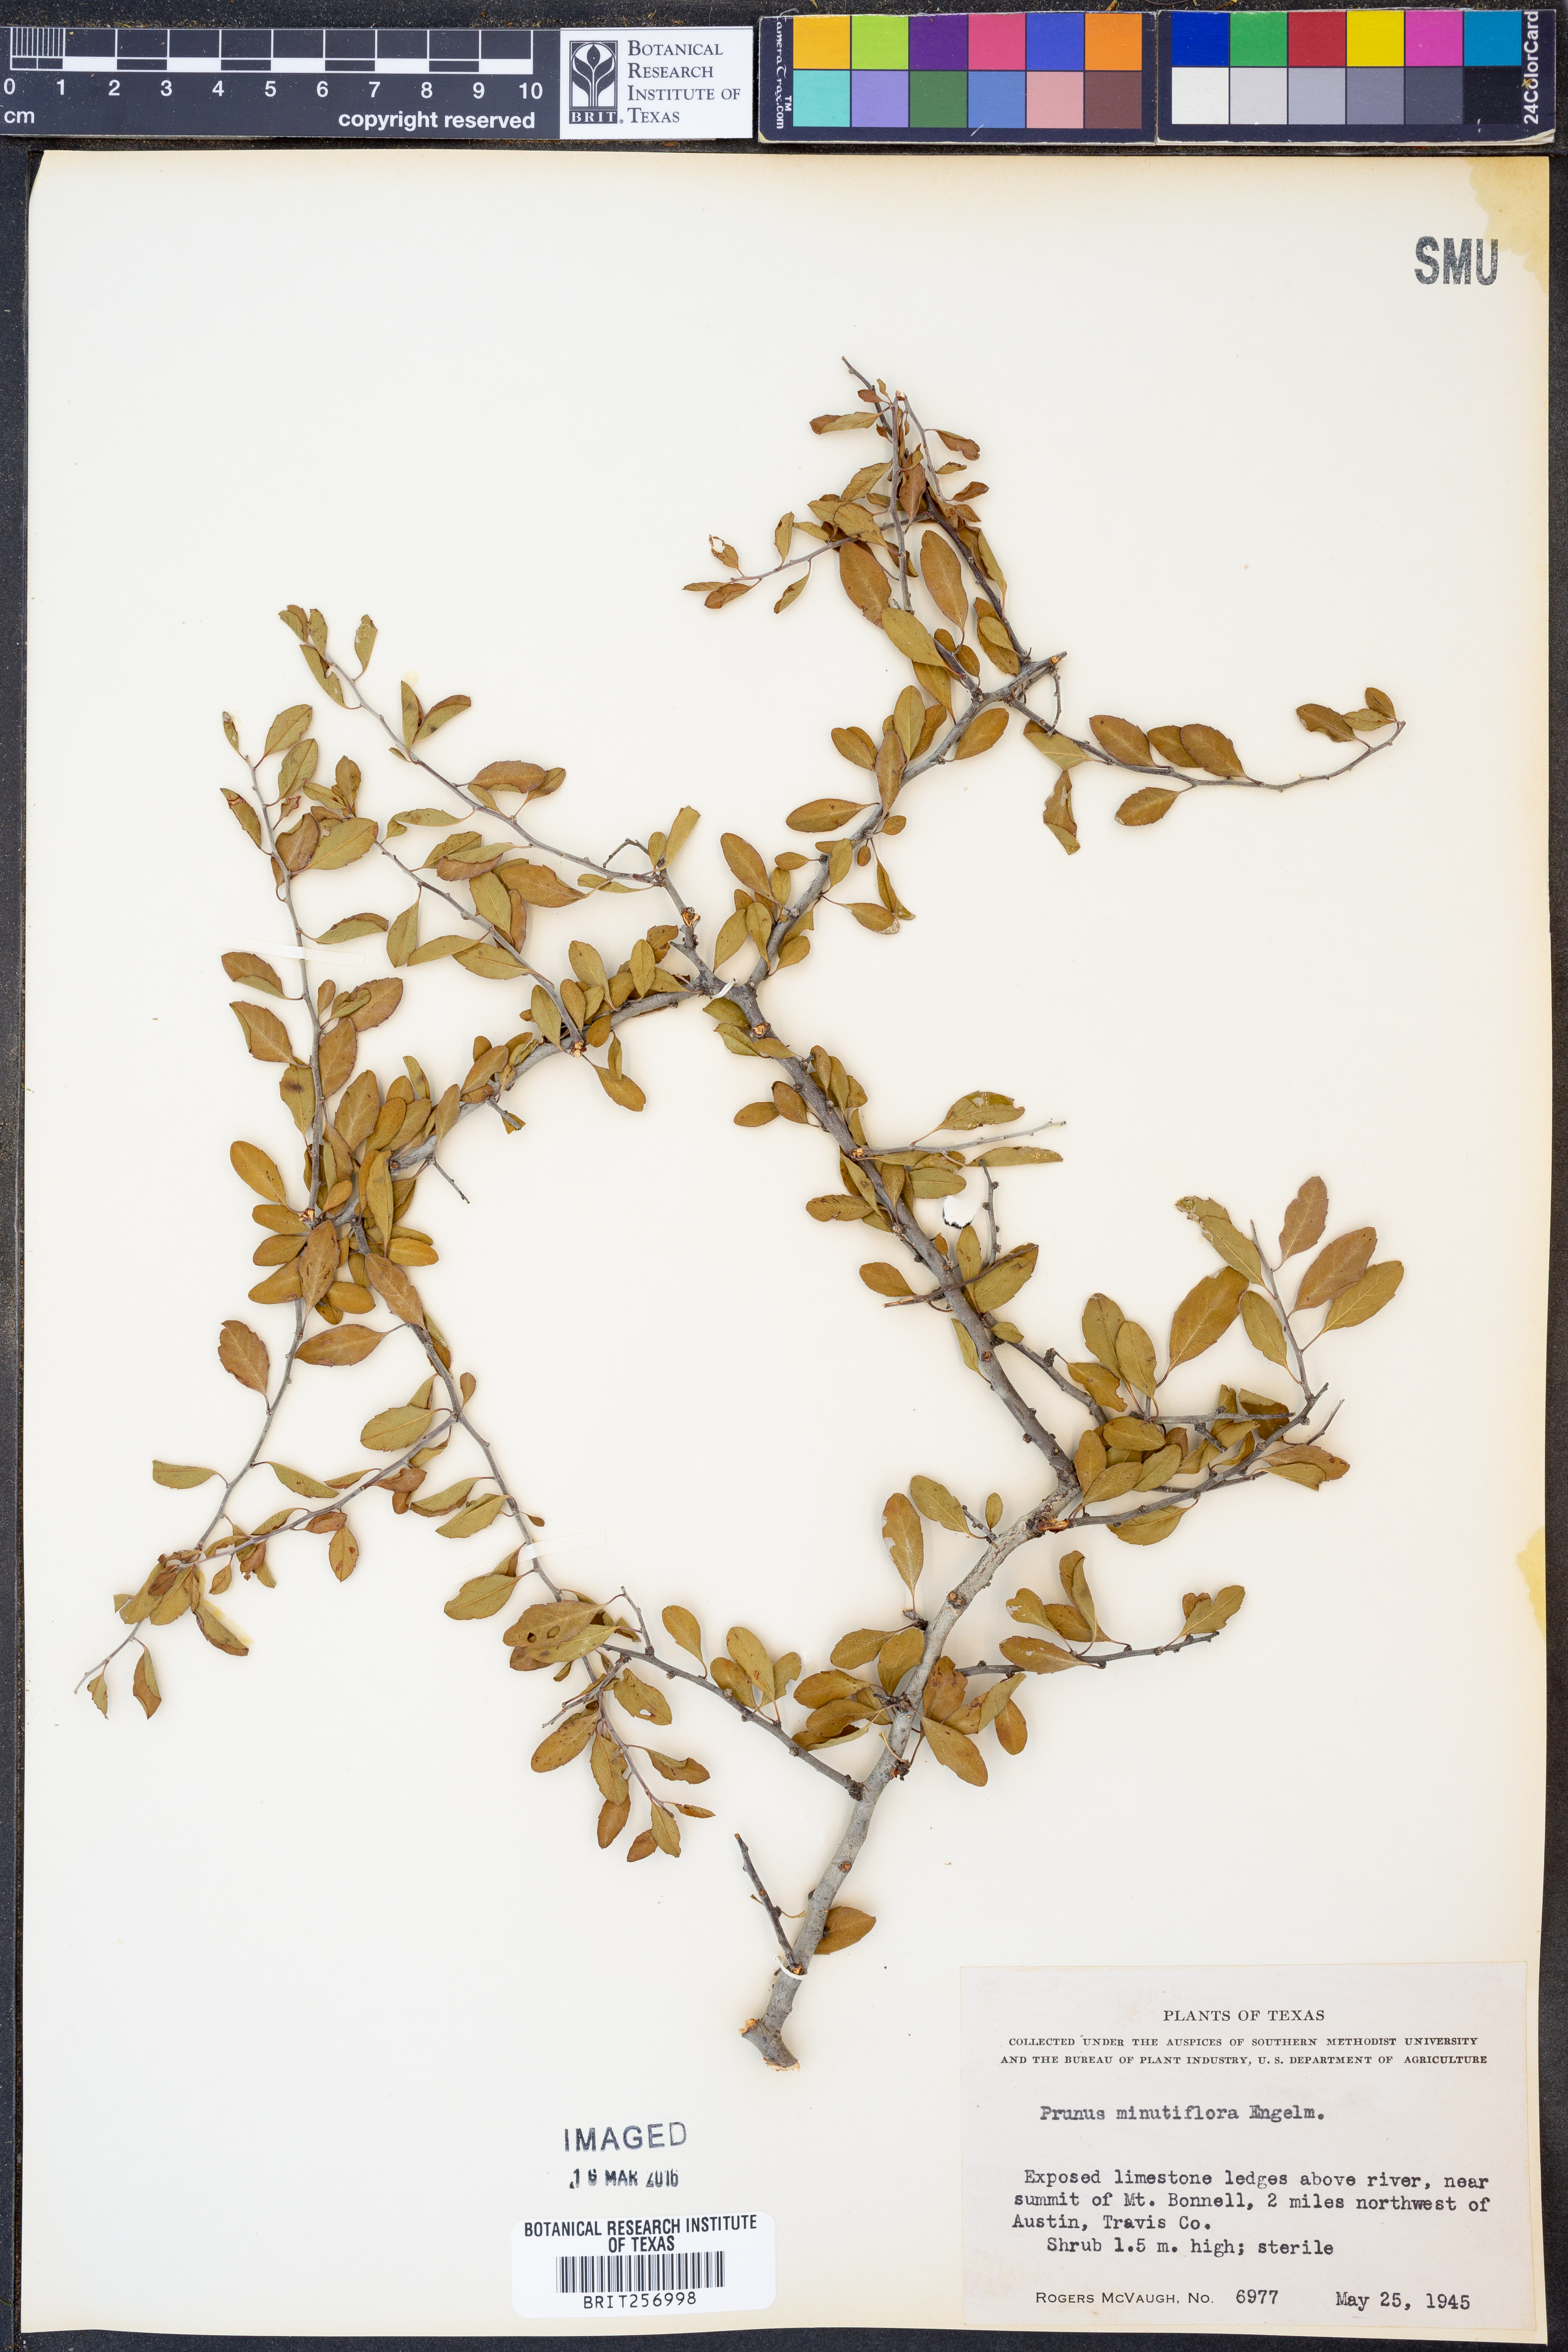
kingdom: Plantae
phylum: Tracheophyta
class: Magnoliopsida
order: Rosales
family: Rosaceae
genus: Prunus
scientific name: Prunus minutiflora
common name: Texas almond
